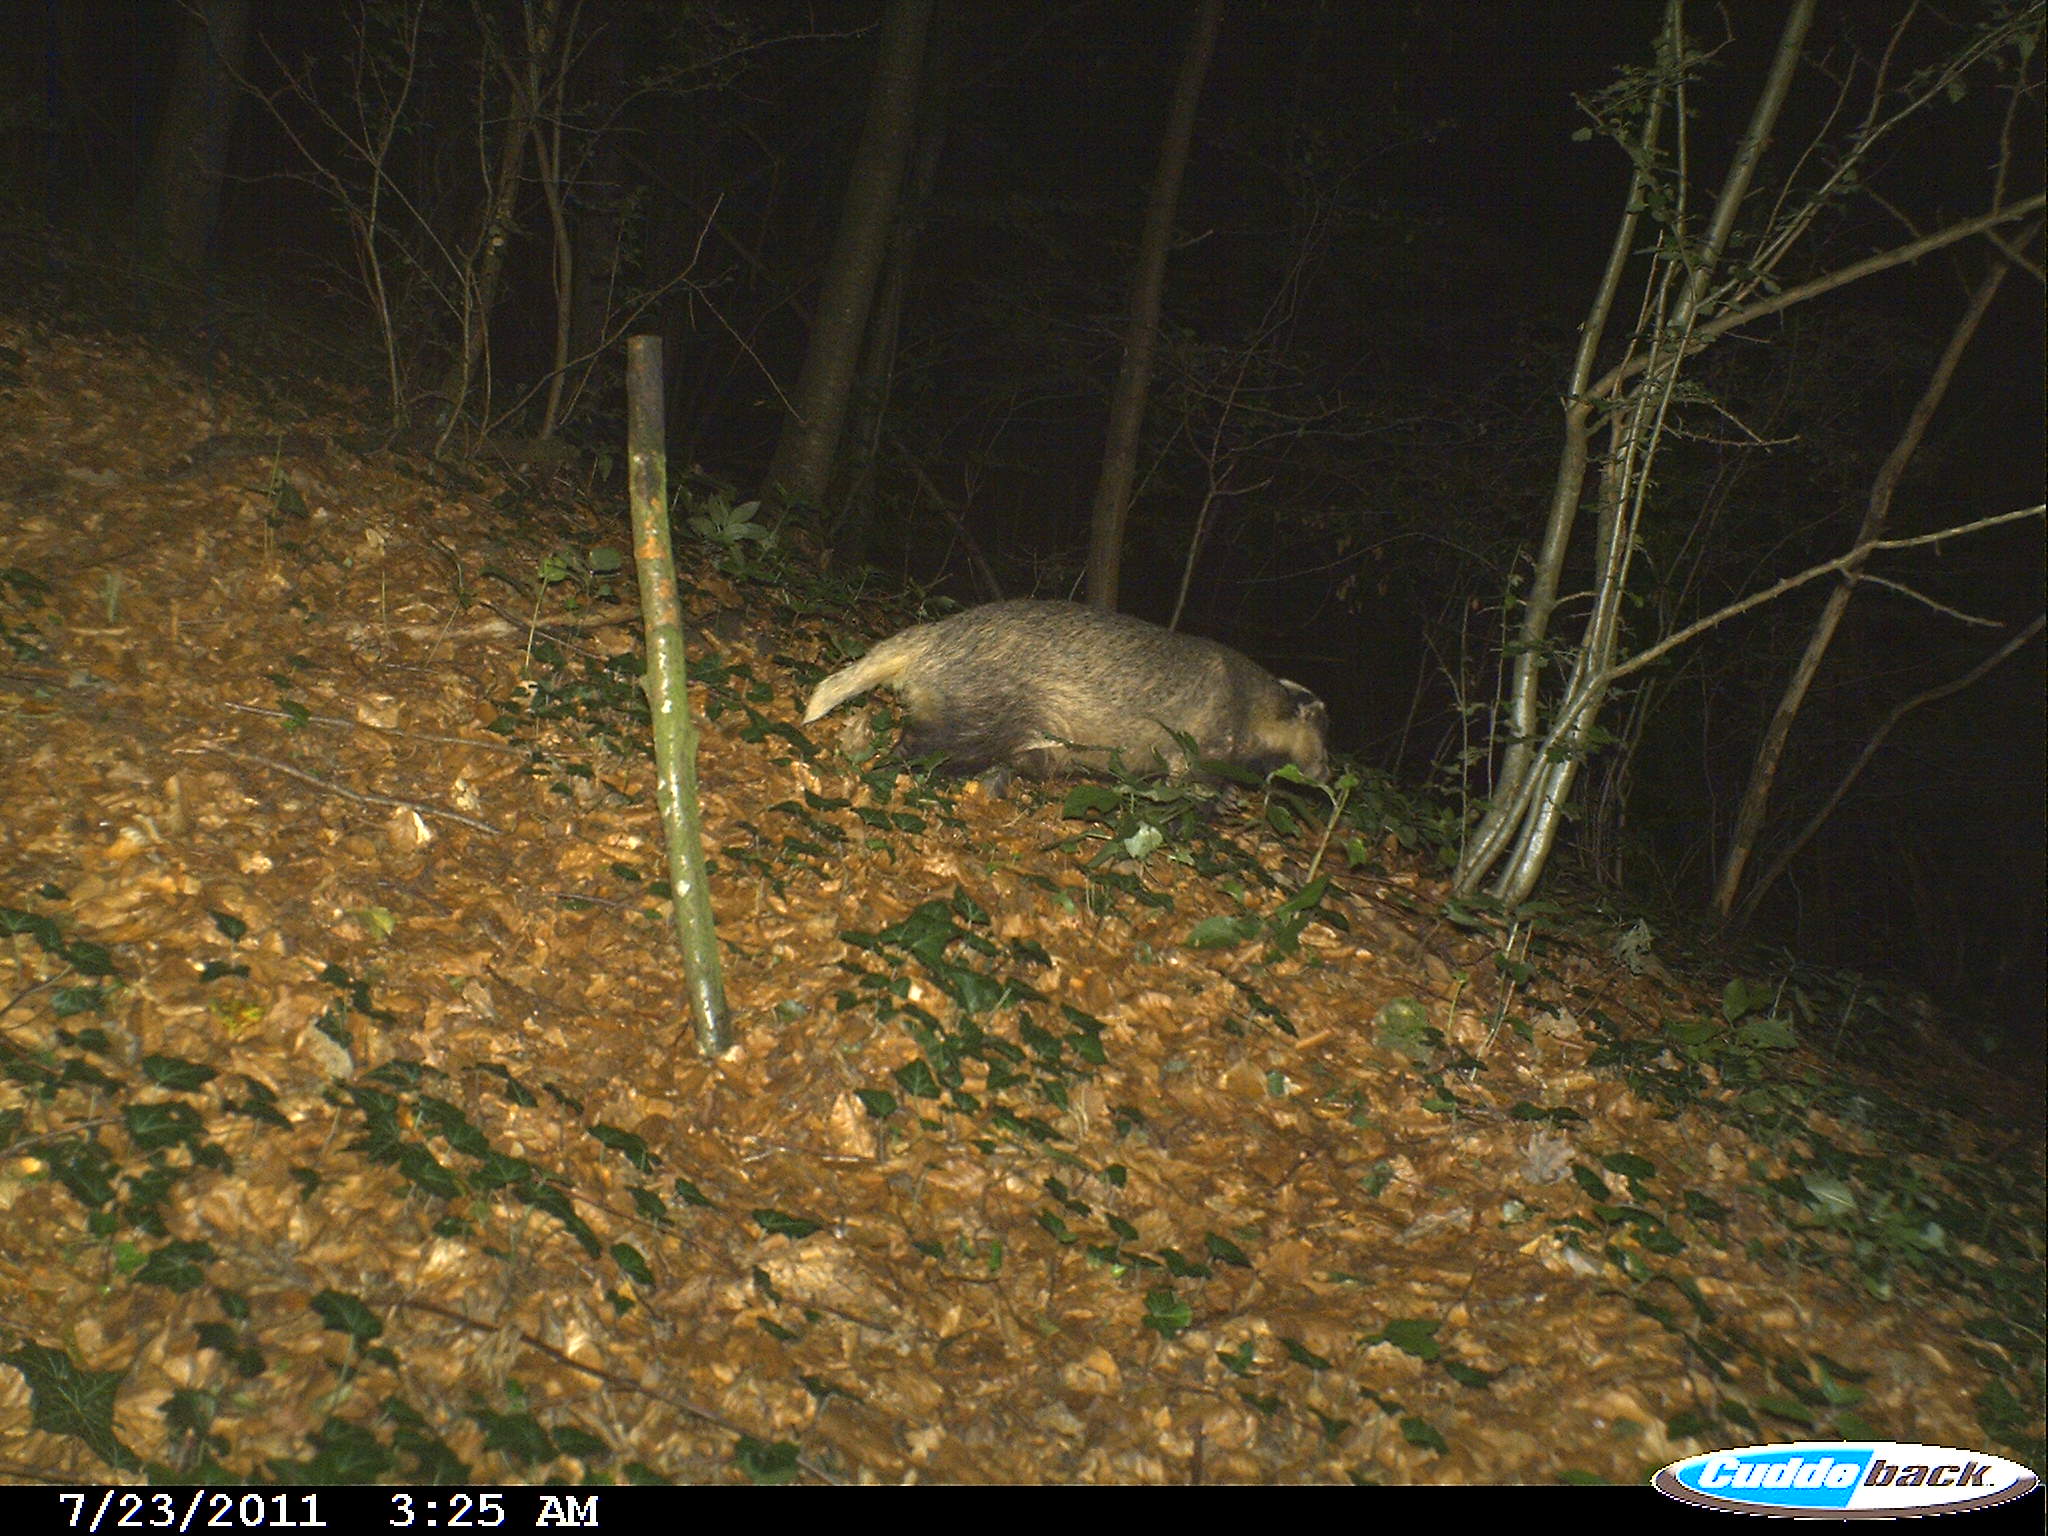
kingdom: Animalia
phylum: Chordata
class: Mammalia
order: Carnivora
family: Mustelidae
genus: Meles
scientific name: Meles meles
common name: Eurasian badger
